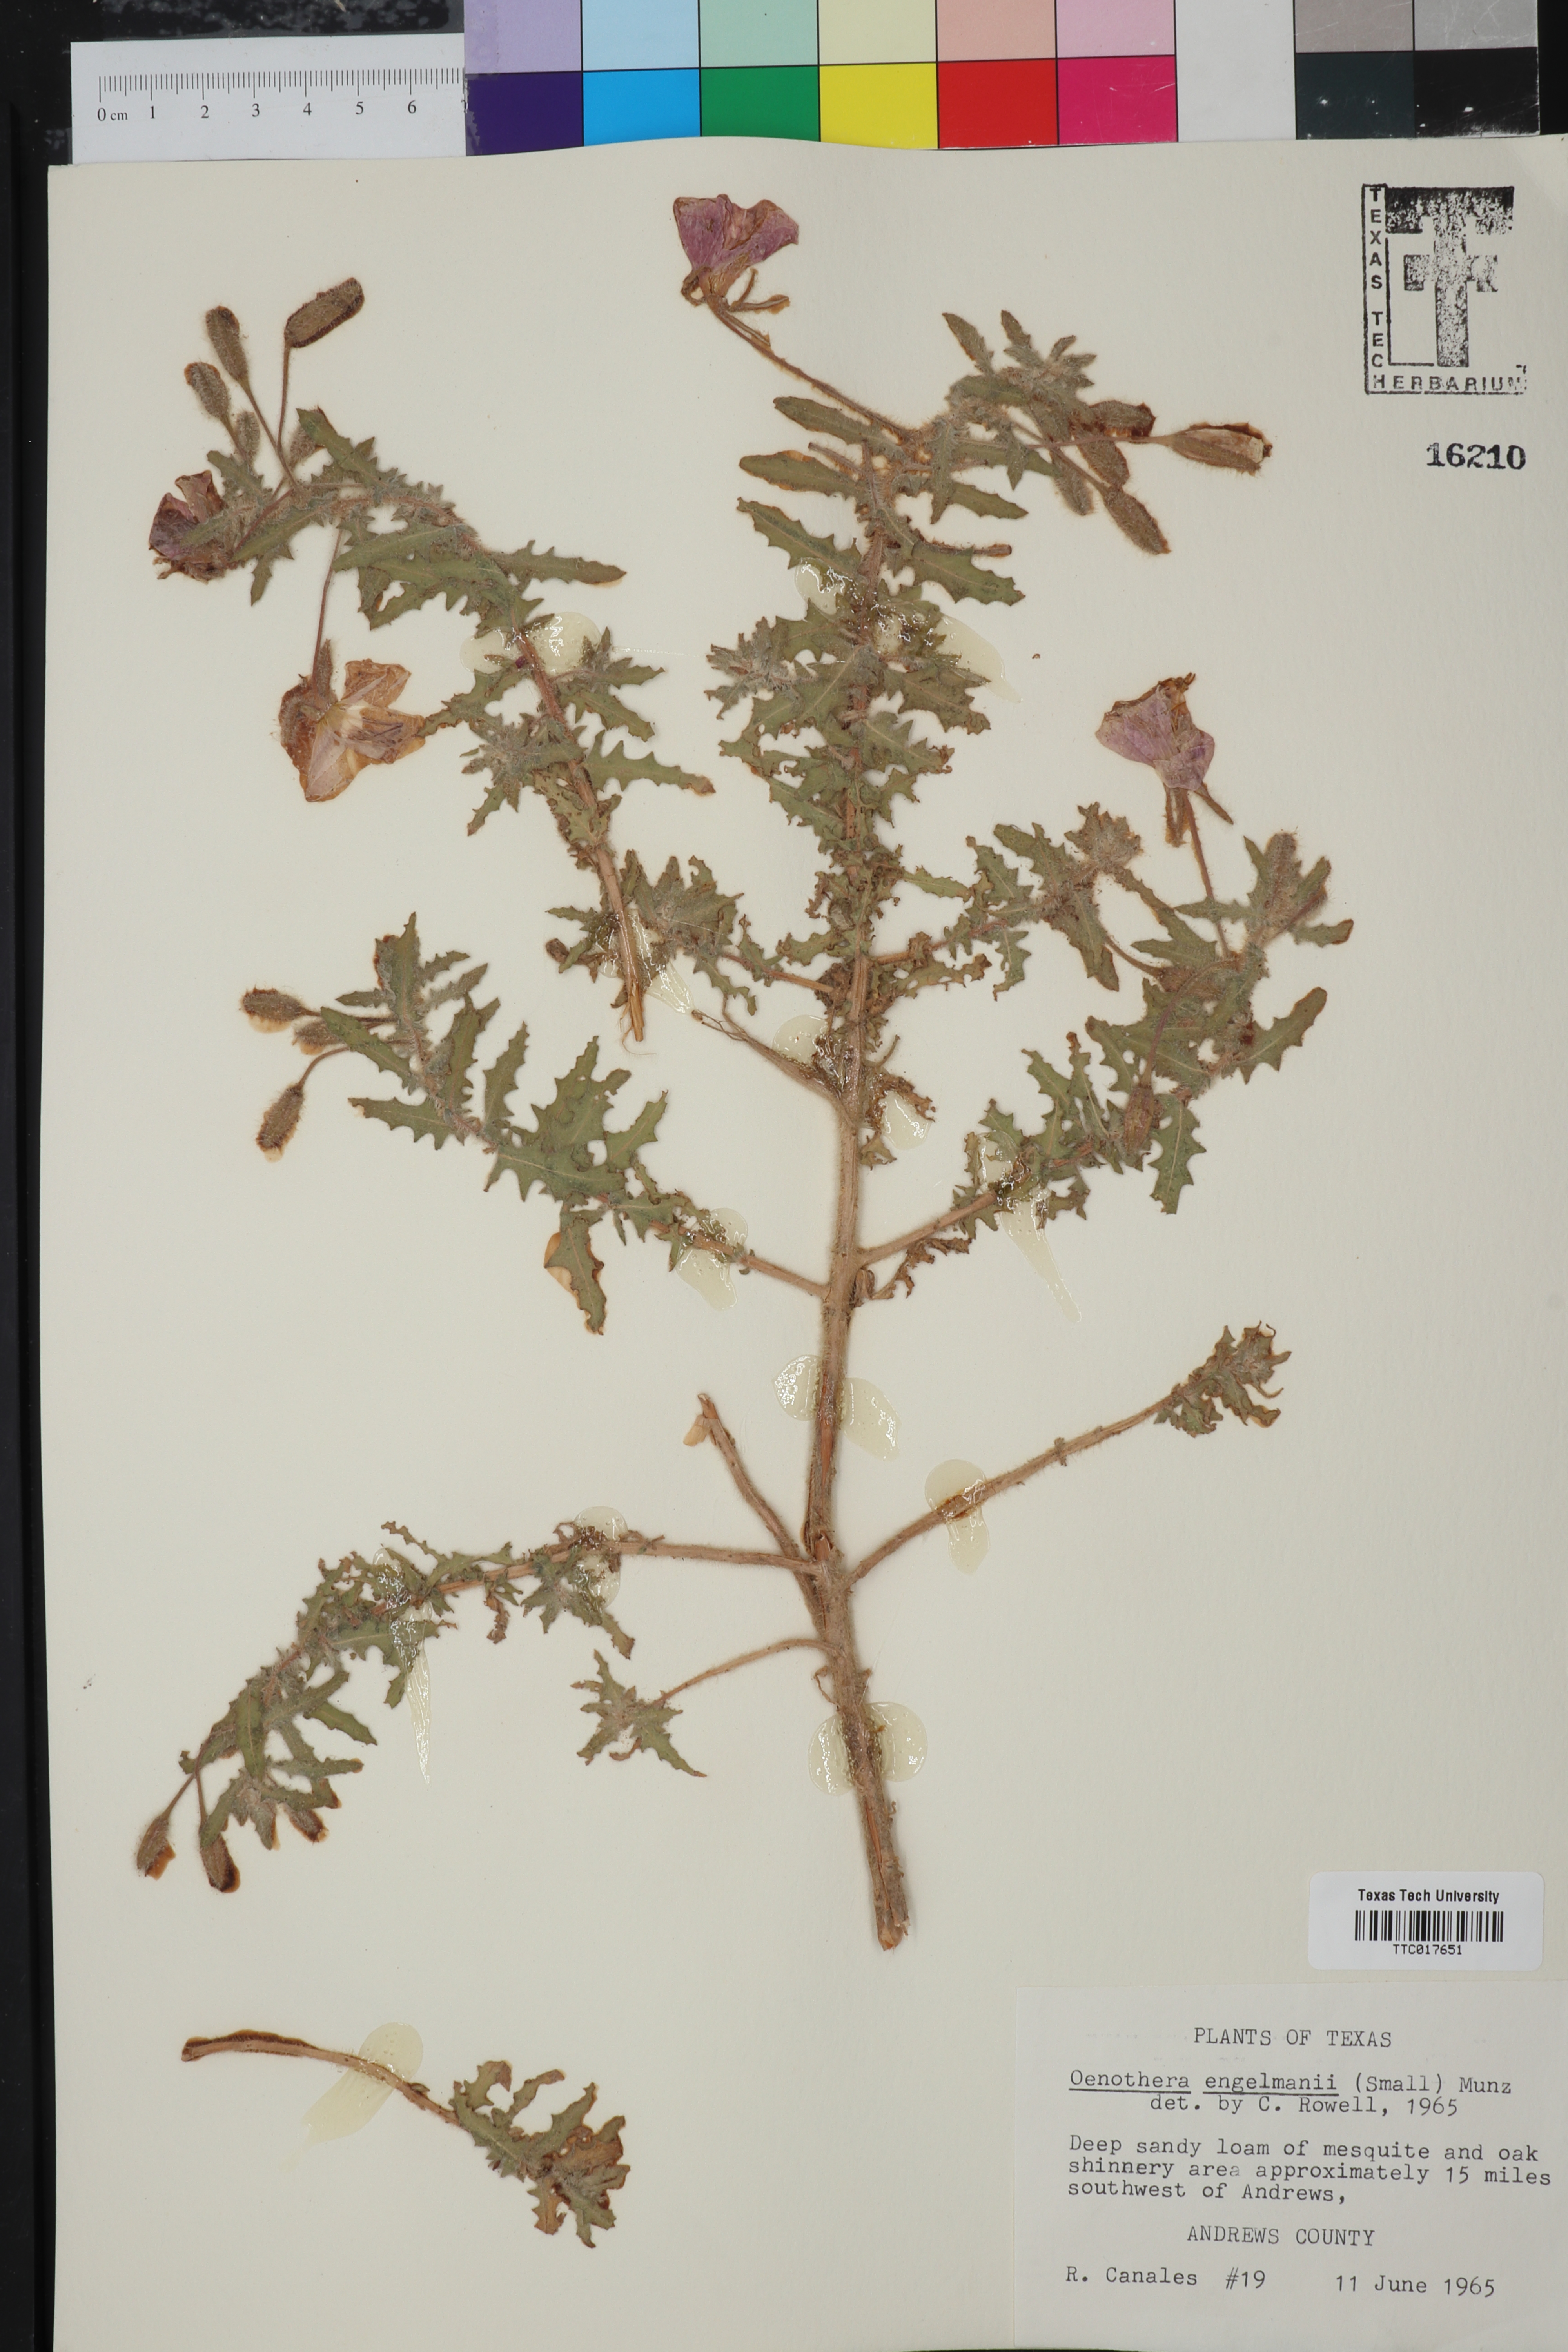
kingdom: Plantae
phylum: Tracheophyta
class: Magnoliopsida
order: Myrtales
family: Onagraceae
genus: Oenothera
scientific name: Oenothera engelmannii
